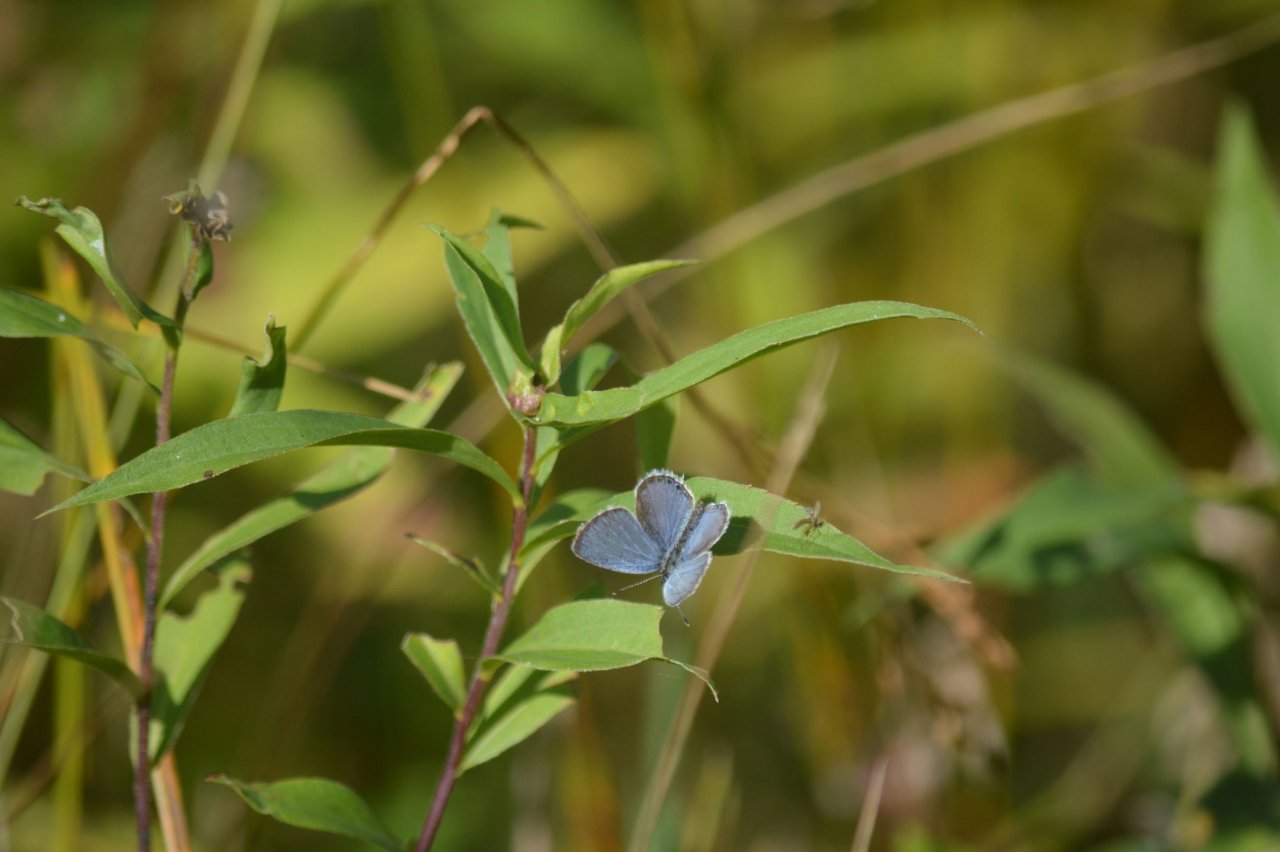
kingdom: Animalia
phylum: Arthropoda
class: Insecta
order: Lepidoptera
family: Lycaenidae
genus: Elkalyce
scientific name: Elkalyce comyntas
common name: Eastern Tailed-Blue
